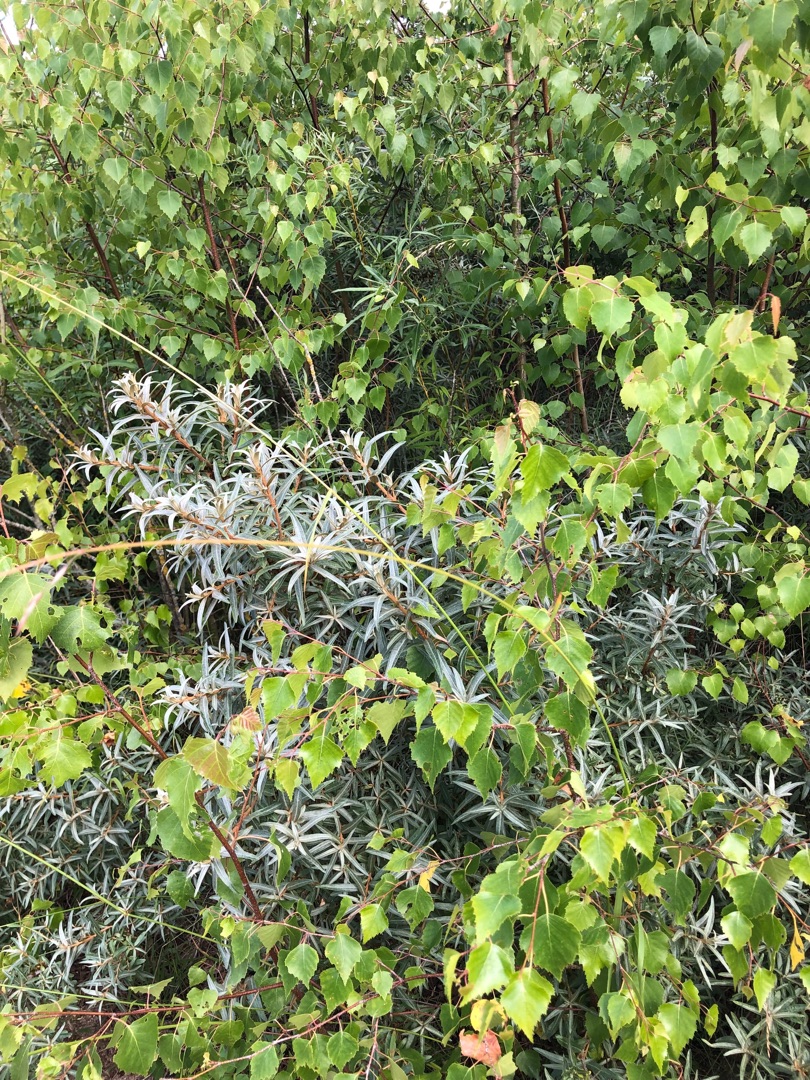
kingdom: Plantae
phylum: Tracheophyta
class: Magnoliopsida
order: Fagales
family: Betulaceae
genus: Betula
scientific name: Betula pendula
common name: Vorte-birk
